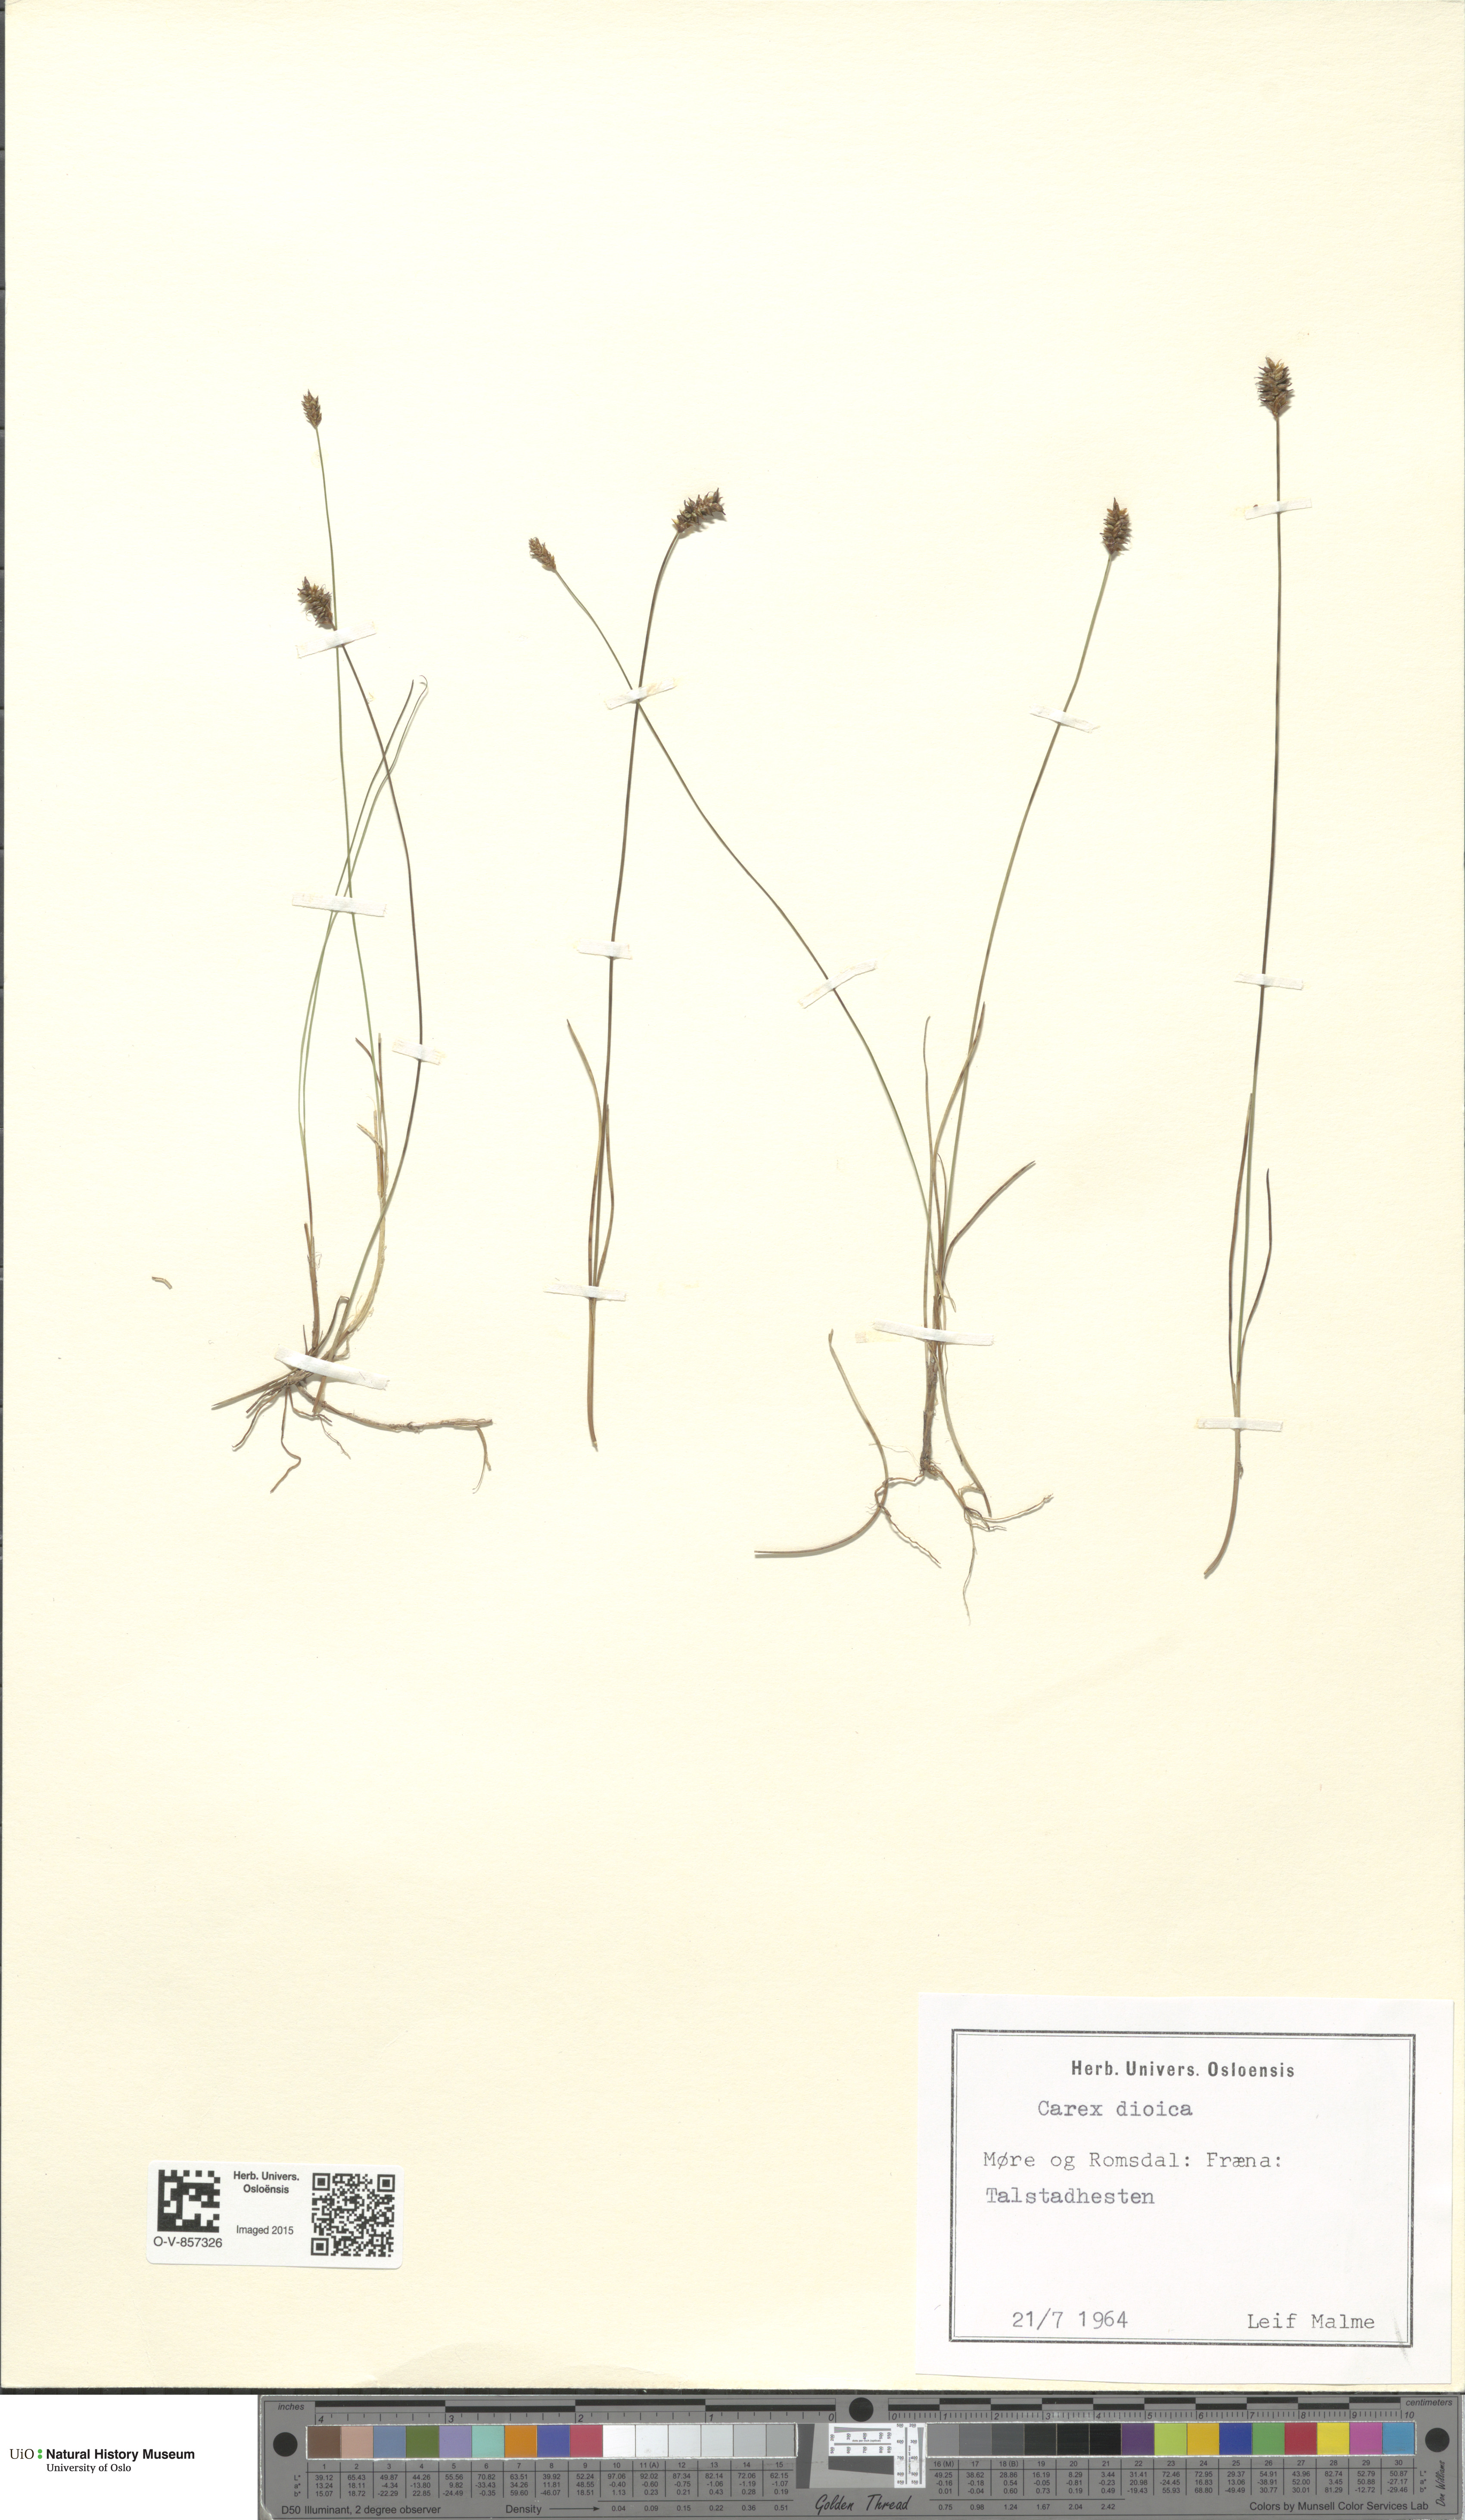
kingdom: Plantae
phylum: Tracheophyta
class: Liliopsida
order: Poales
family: Cyperaceae
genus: Carex
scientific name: Carex dioica
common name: Dioecious sedge
